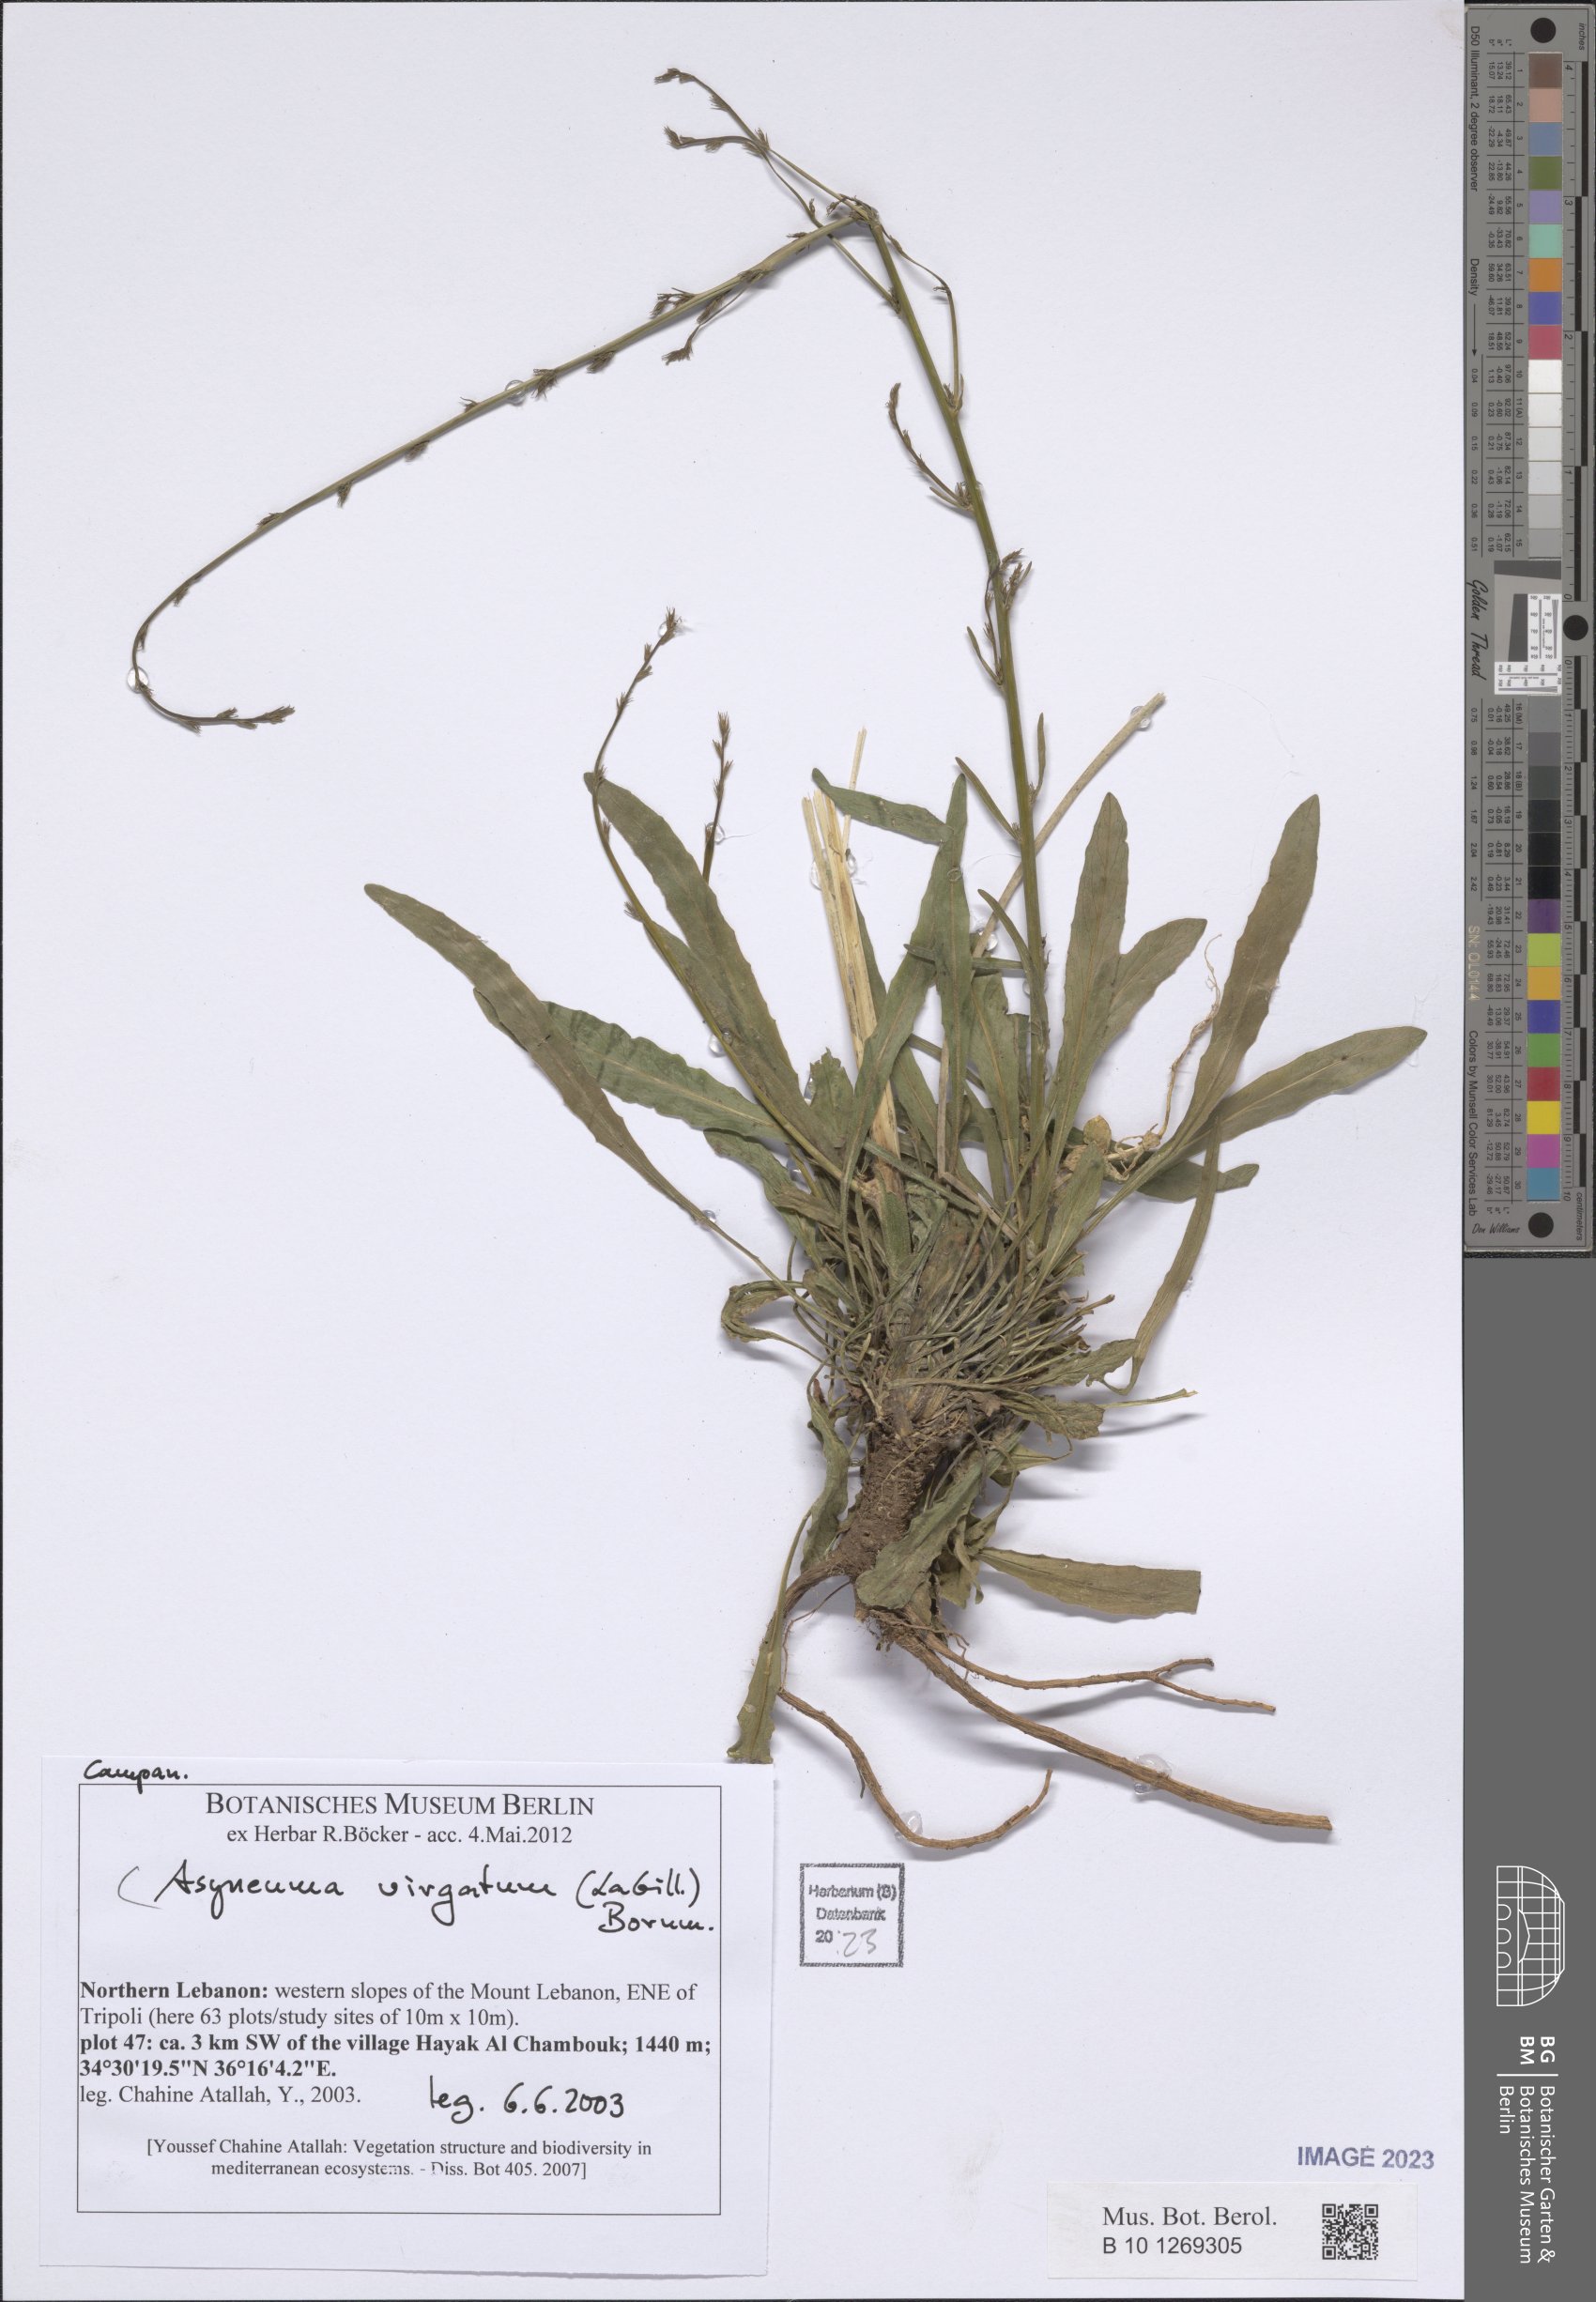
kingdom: Plantae
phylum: Tracheophyta
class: Magnoliopsida
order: Asterales
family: Campanulaceae
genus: Asyneuma
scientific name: Asyneuma virgatum
